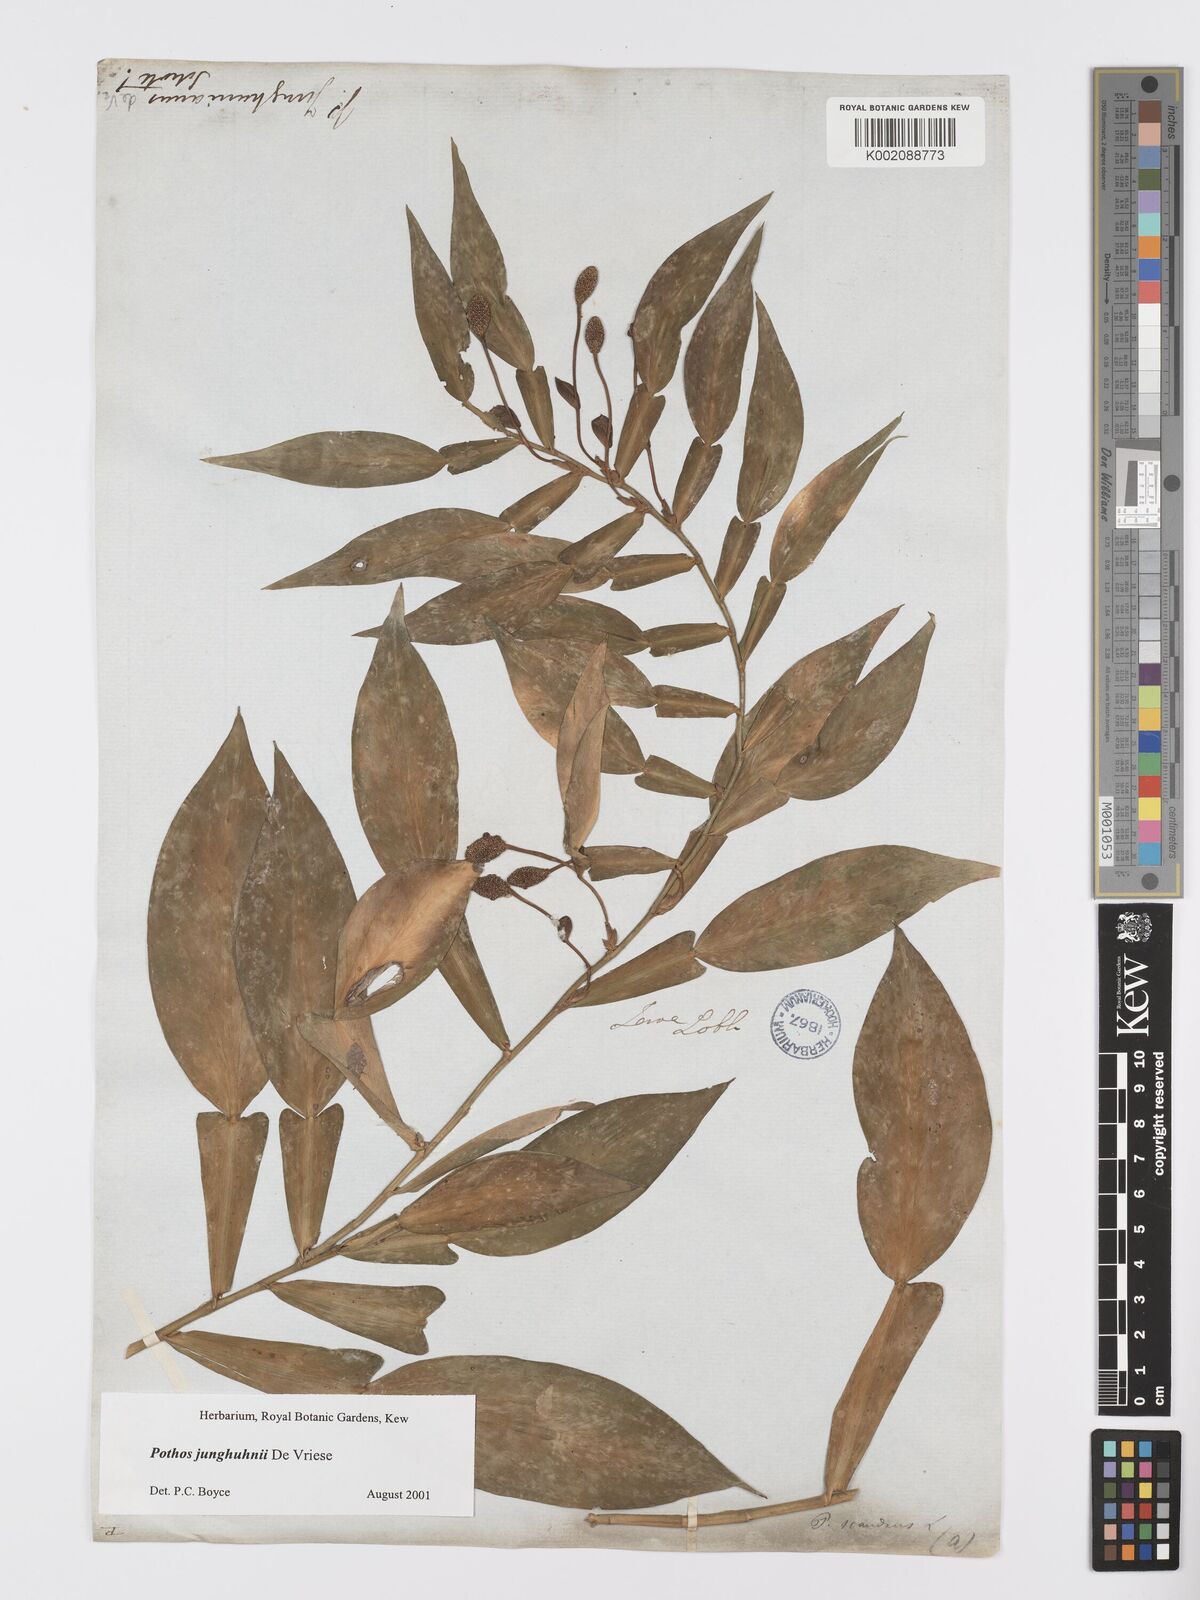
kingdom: Plantae
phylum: Tracheophyta
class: Liliopsida
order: Alismatales
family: Araceae
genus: Pothos
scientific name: Pothos junghuhnii
